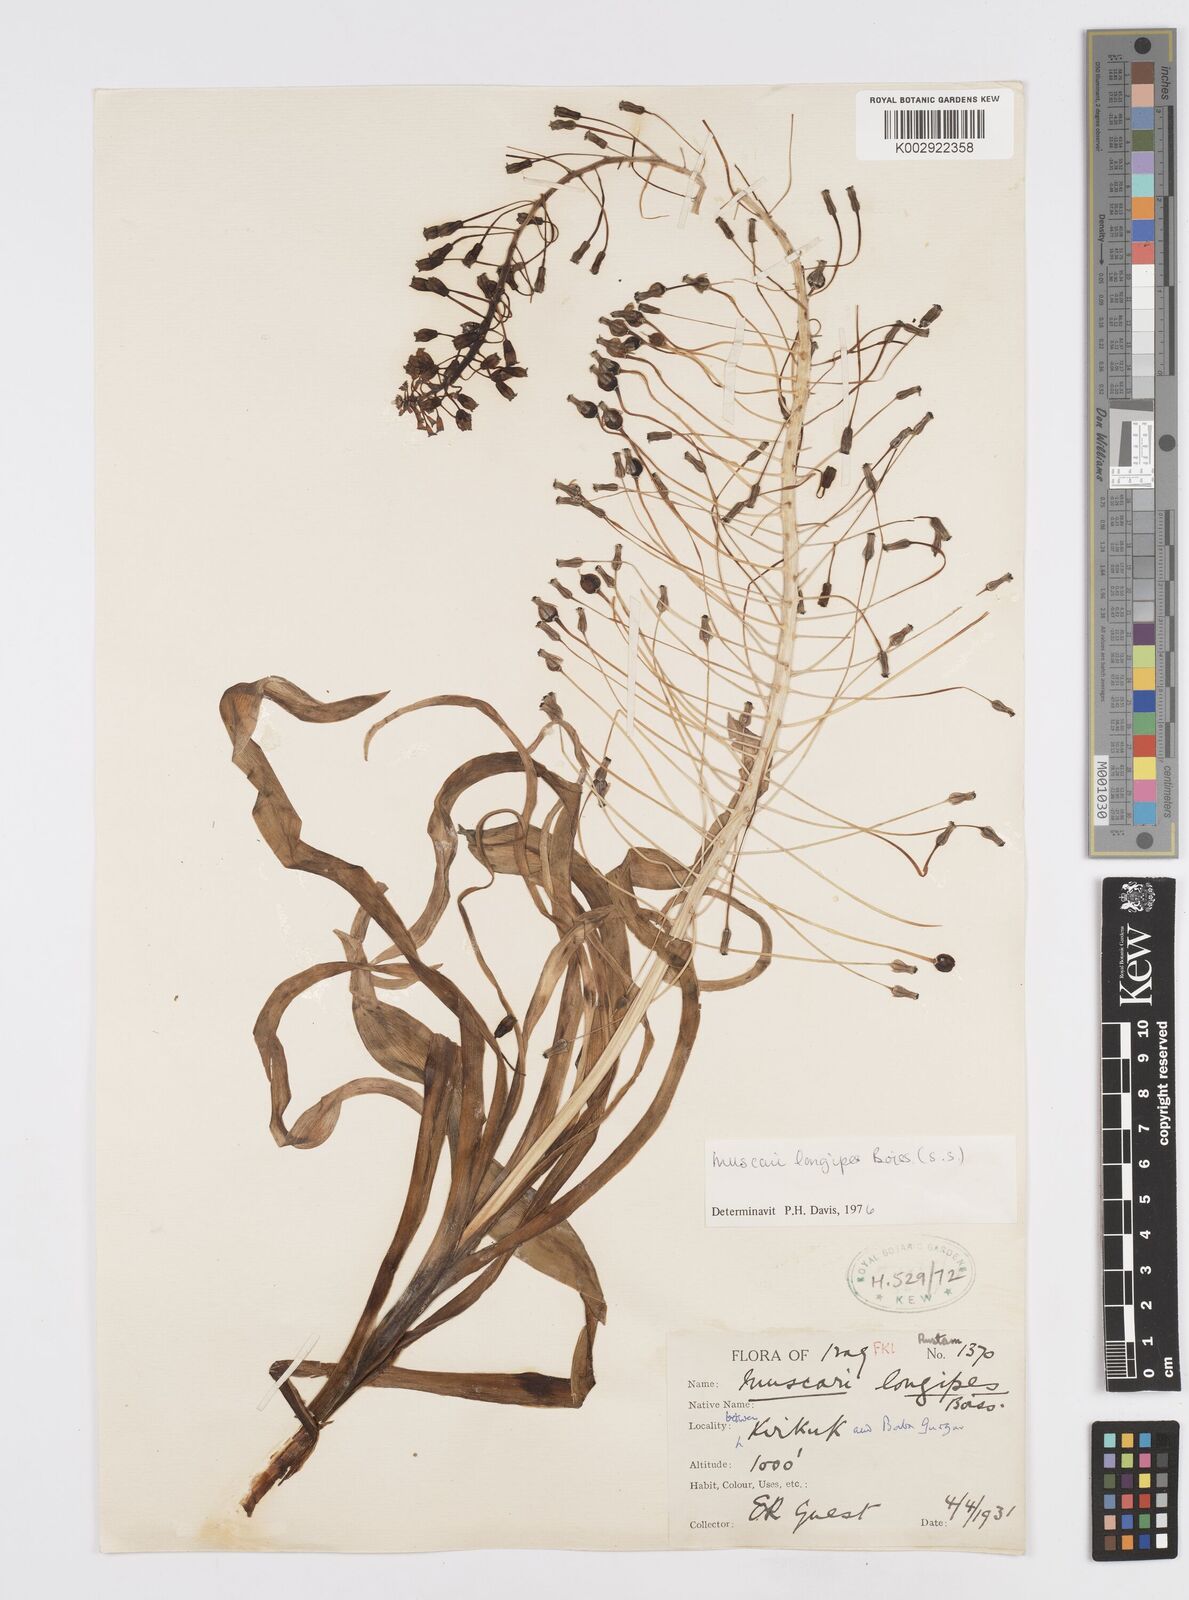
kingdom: Plantae
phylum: Tracheophyta
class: Liliopsida
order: Asparagales
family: Asparagaceae
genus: Muscari
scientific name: Muscari longipes
